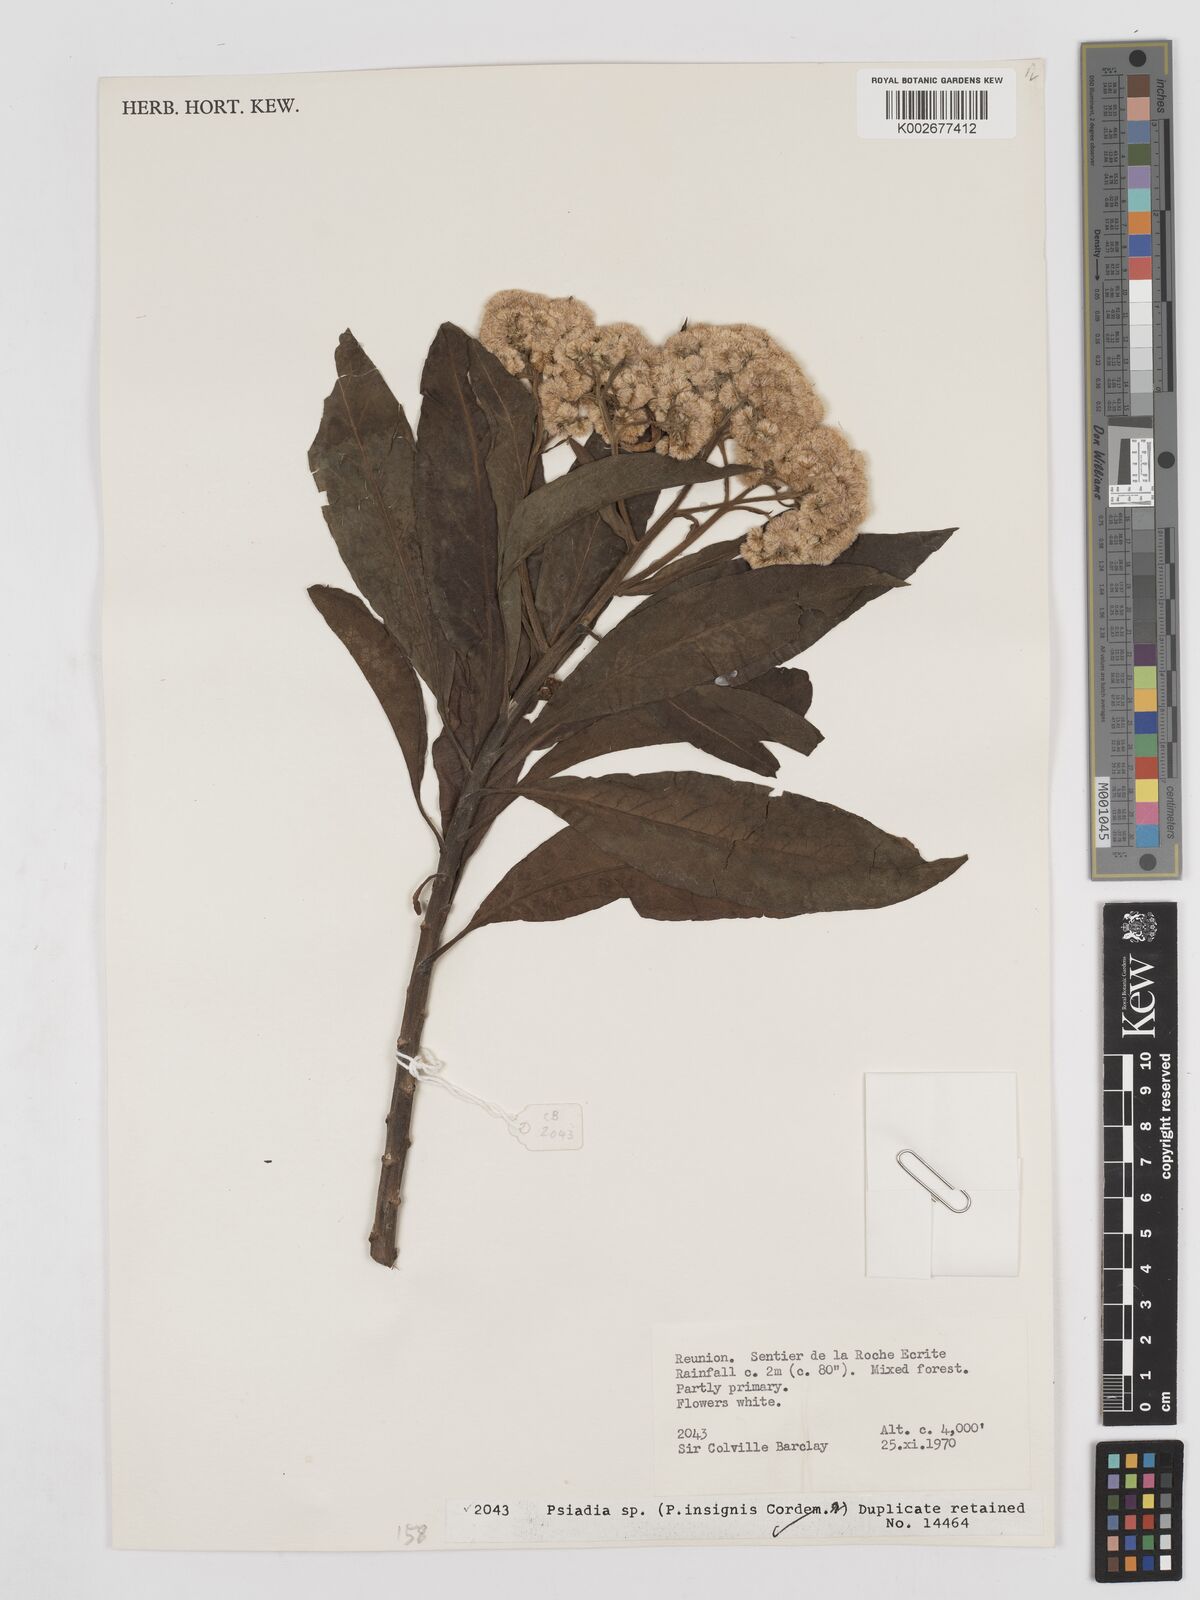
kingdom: Plantae
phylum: Tracheophyta
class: Magnoliopsida
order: Asterales
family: Asteraceae
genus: Psiadia
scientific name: Psiadia insignis
